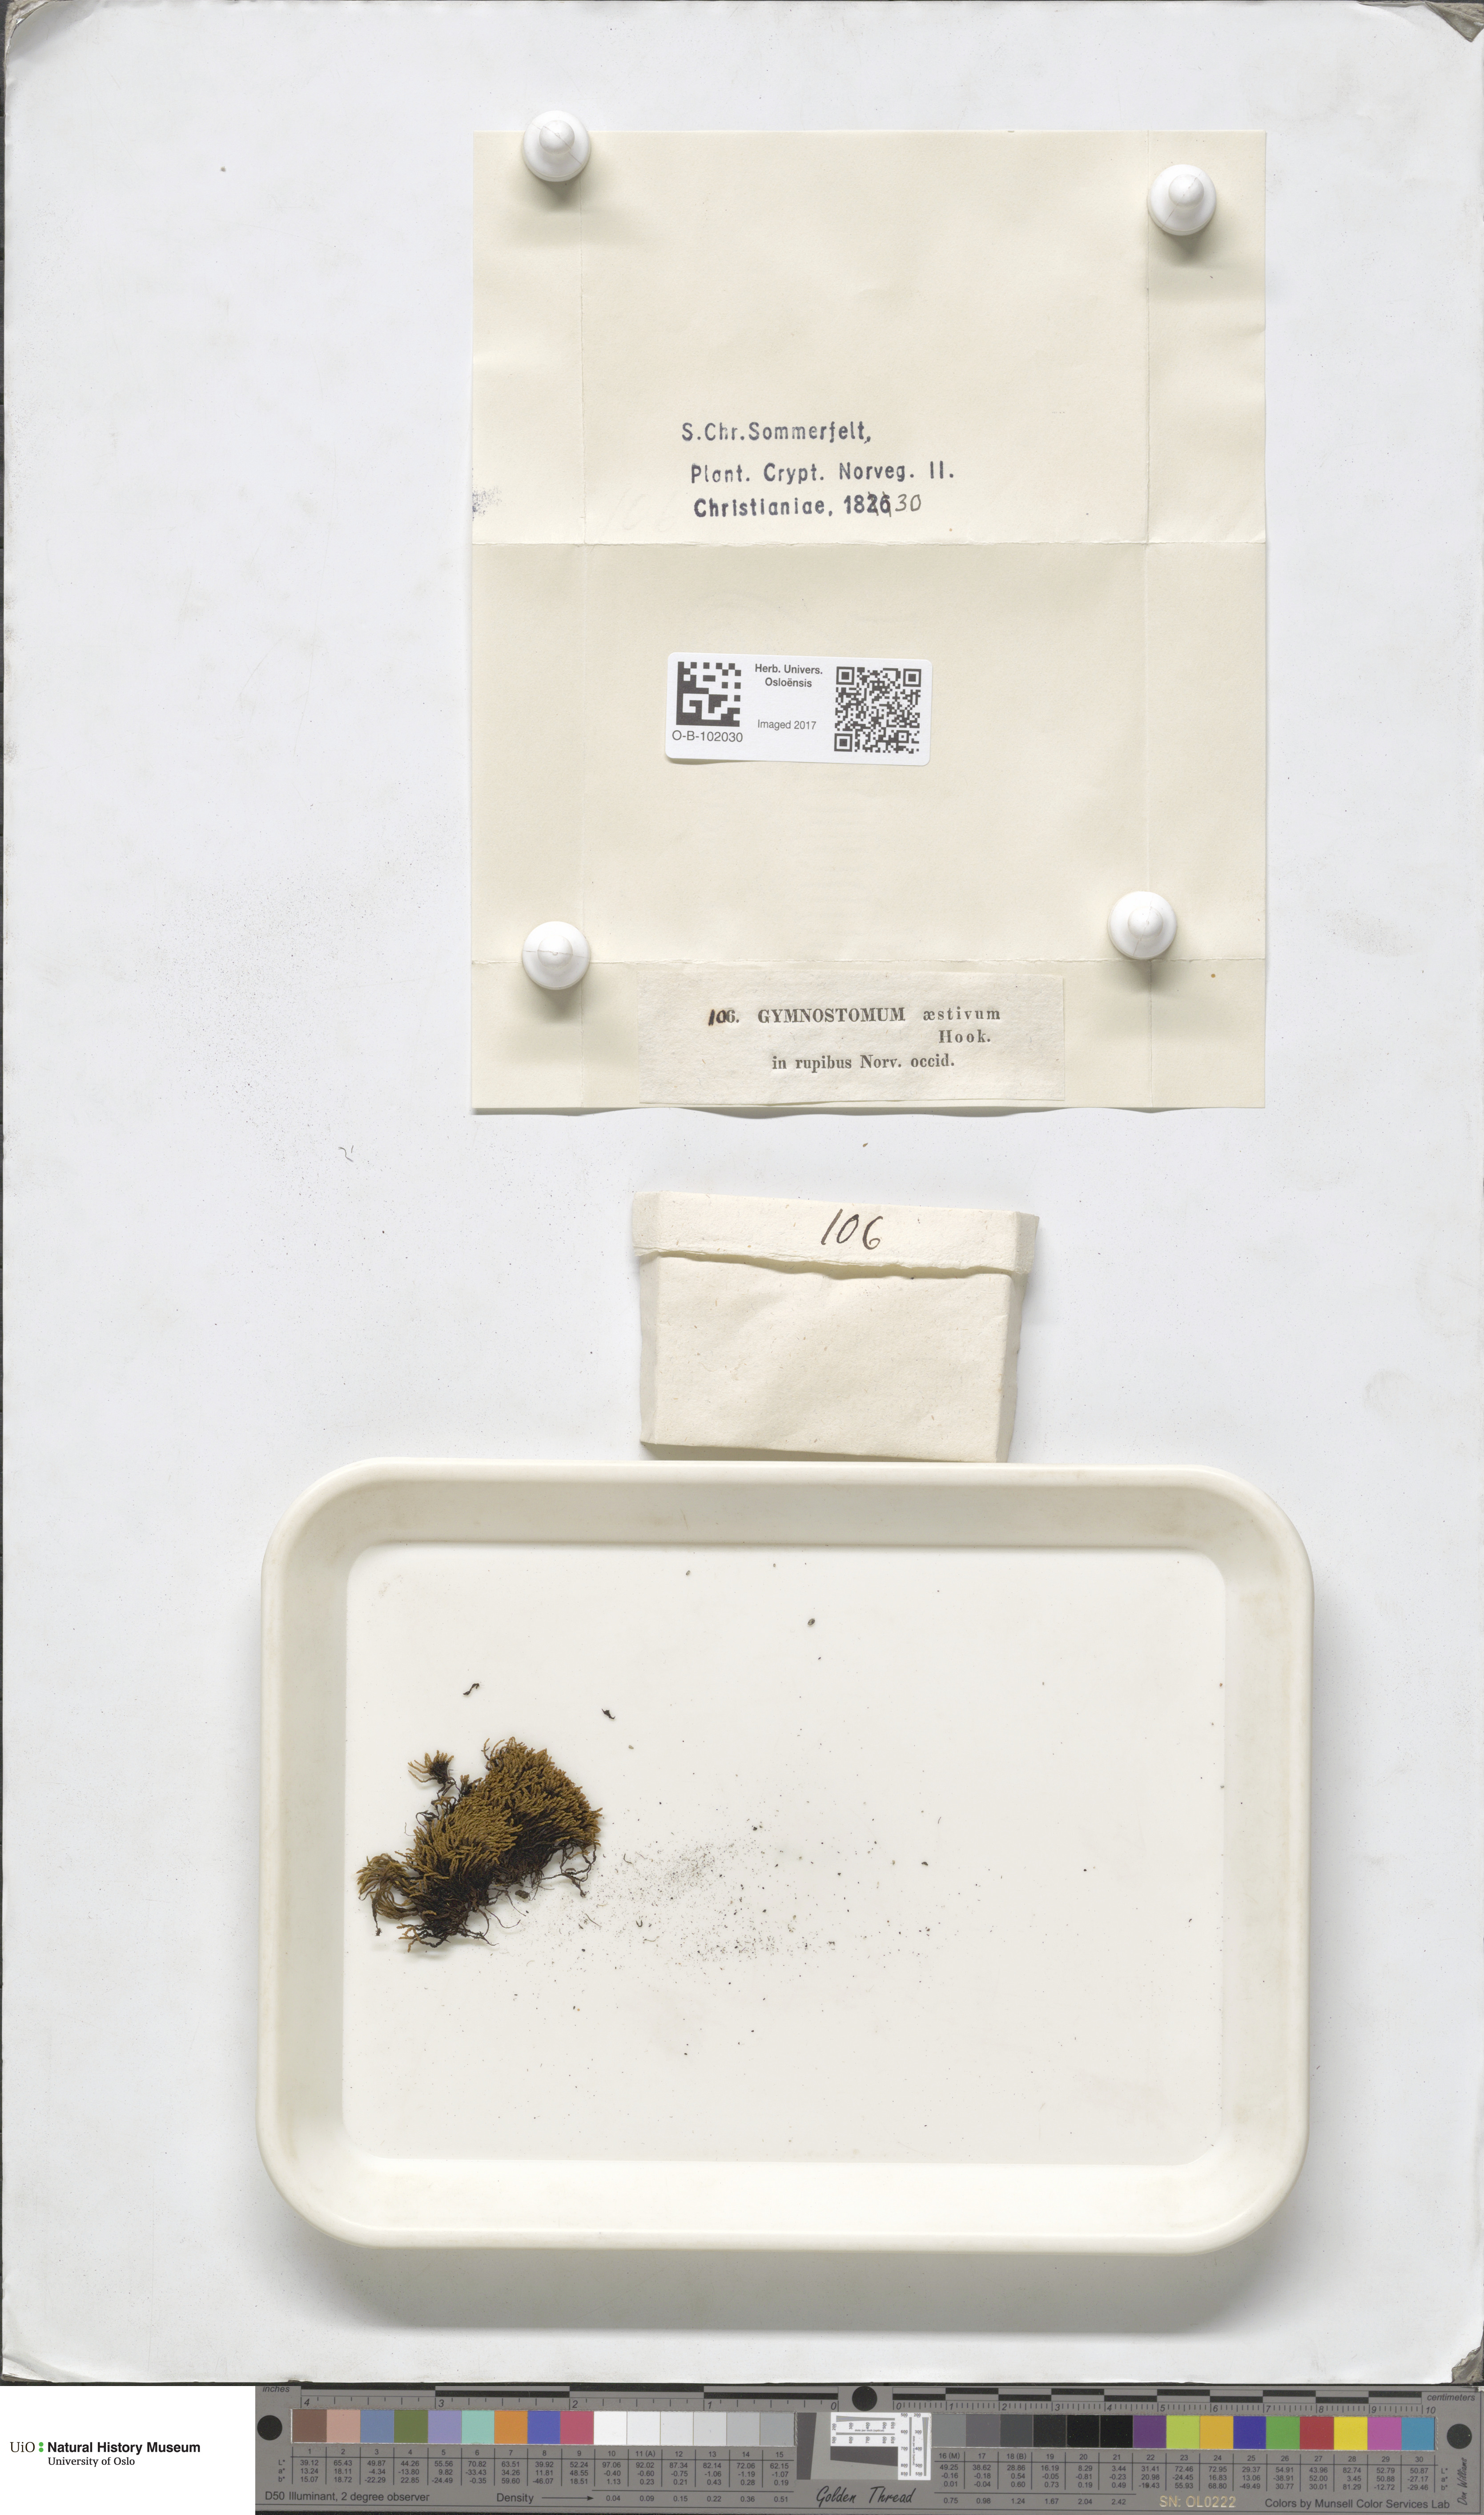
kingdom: Plantae
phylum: Bryophyta
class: Bryopsida
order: Pottiales
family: Pottiaceae
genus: Anoectangium
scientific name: Anoectangium aestivum
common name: Summer-moss
